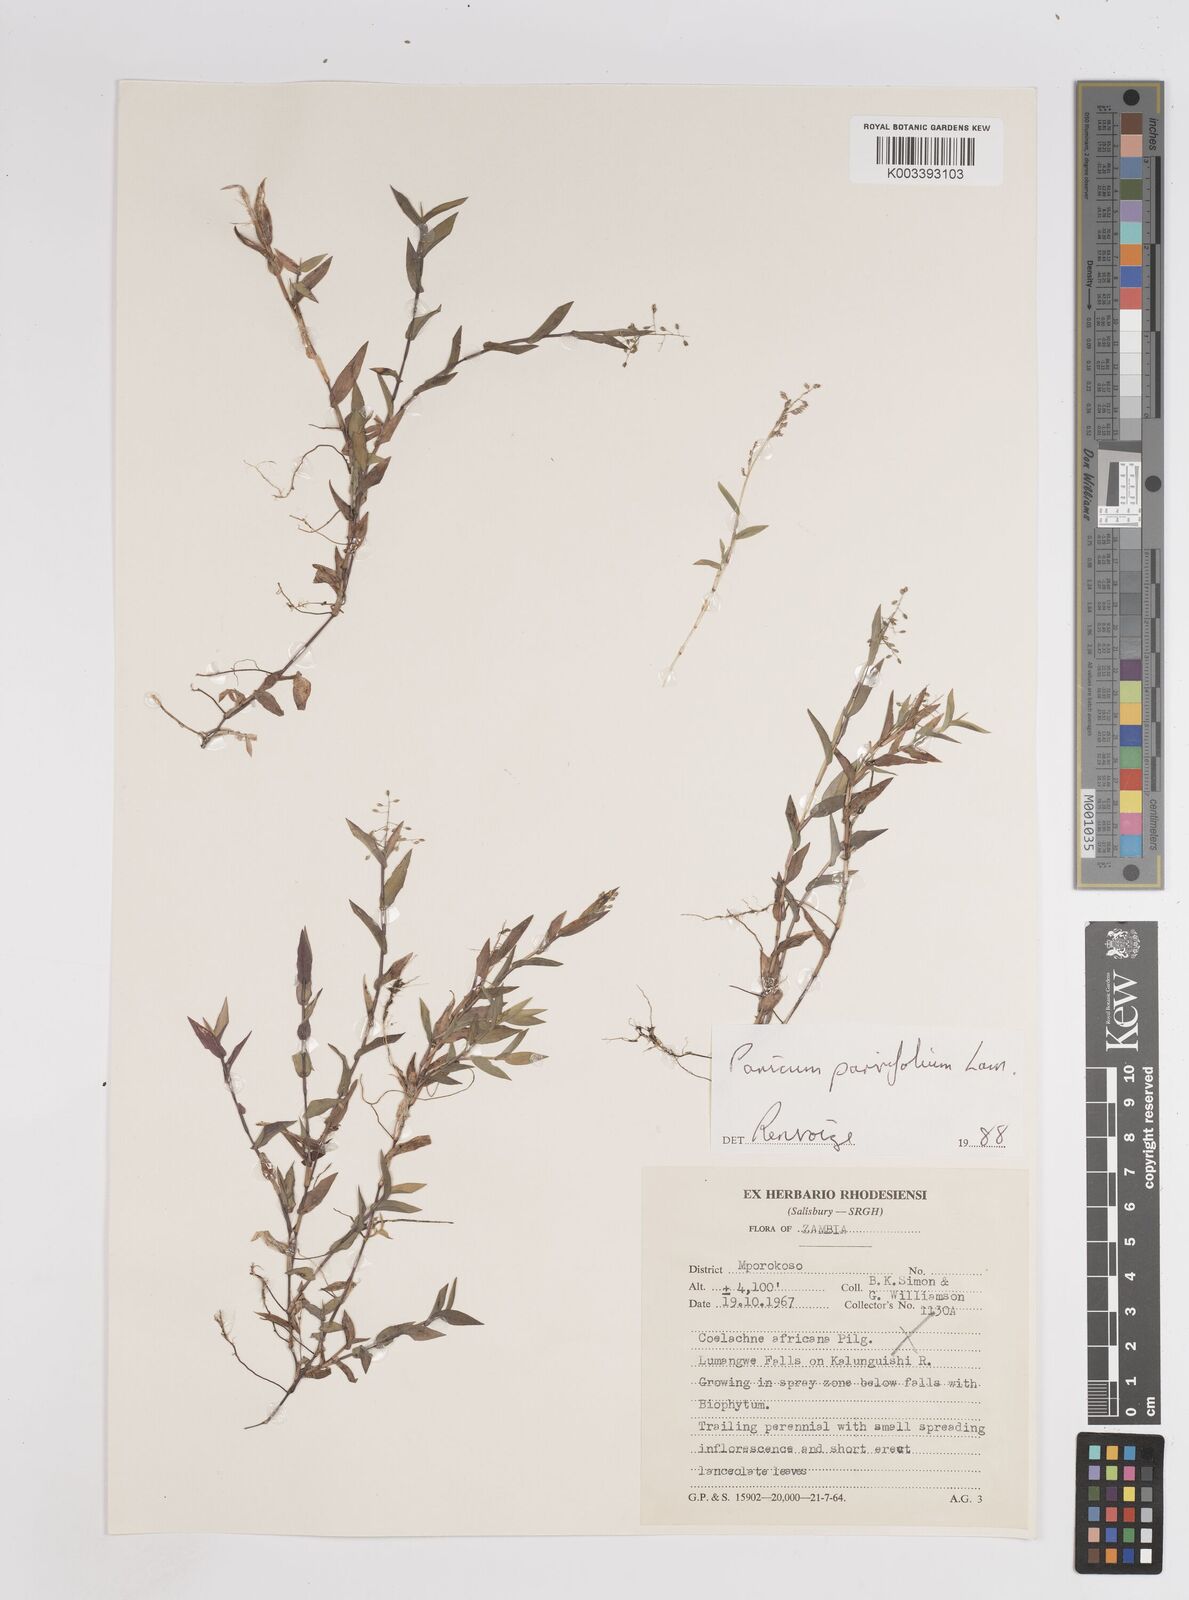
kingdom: Plantae
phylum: Tracheophyta
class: Liliopsida
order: Poales
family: Poaceae
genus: Trichanthecium
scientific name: Trichanthecium parvifolium
